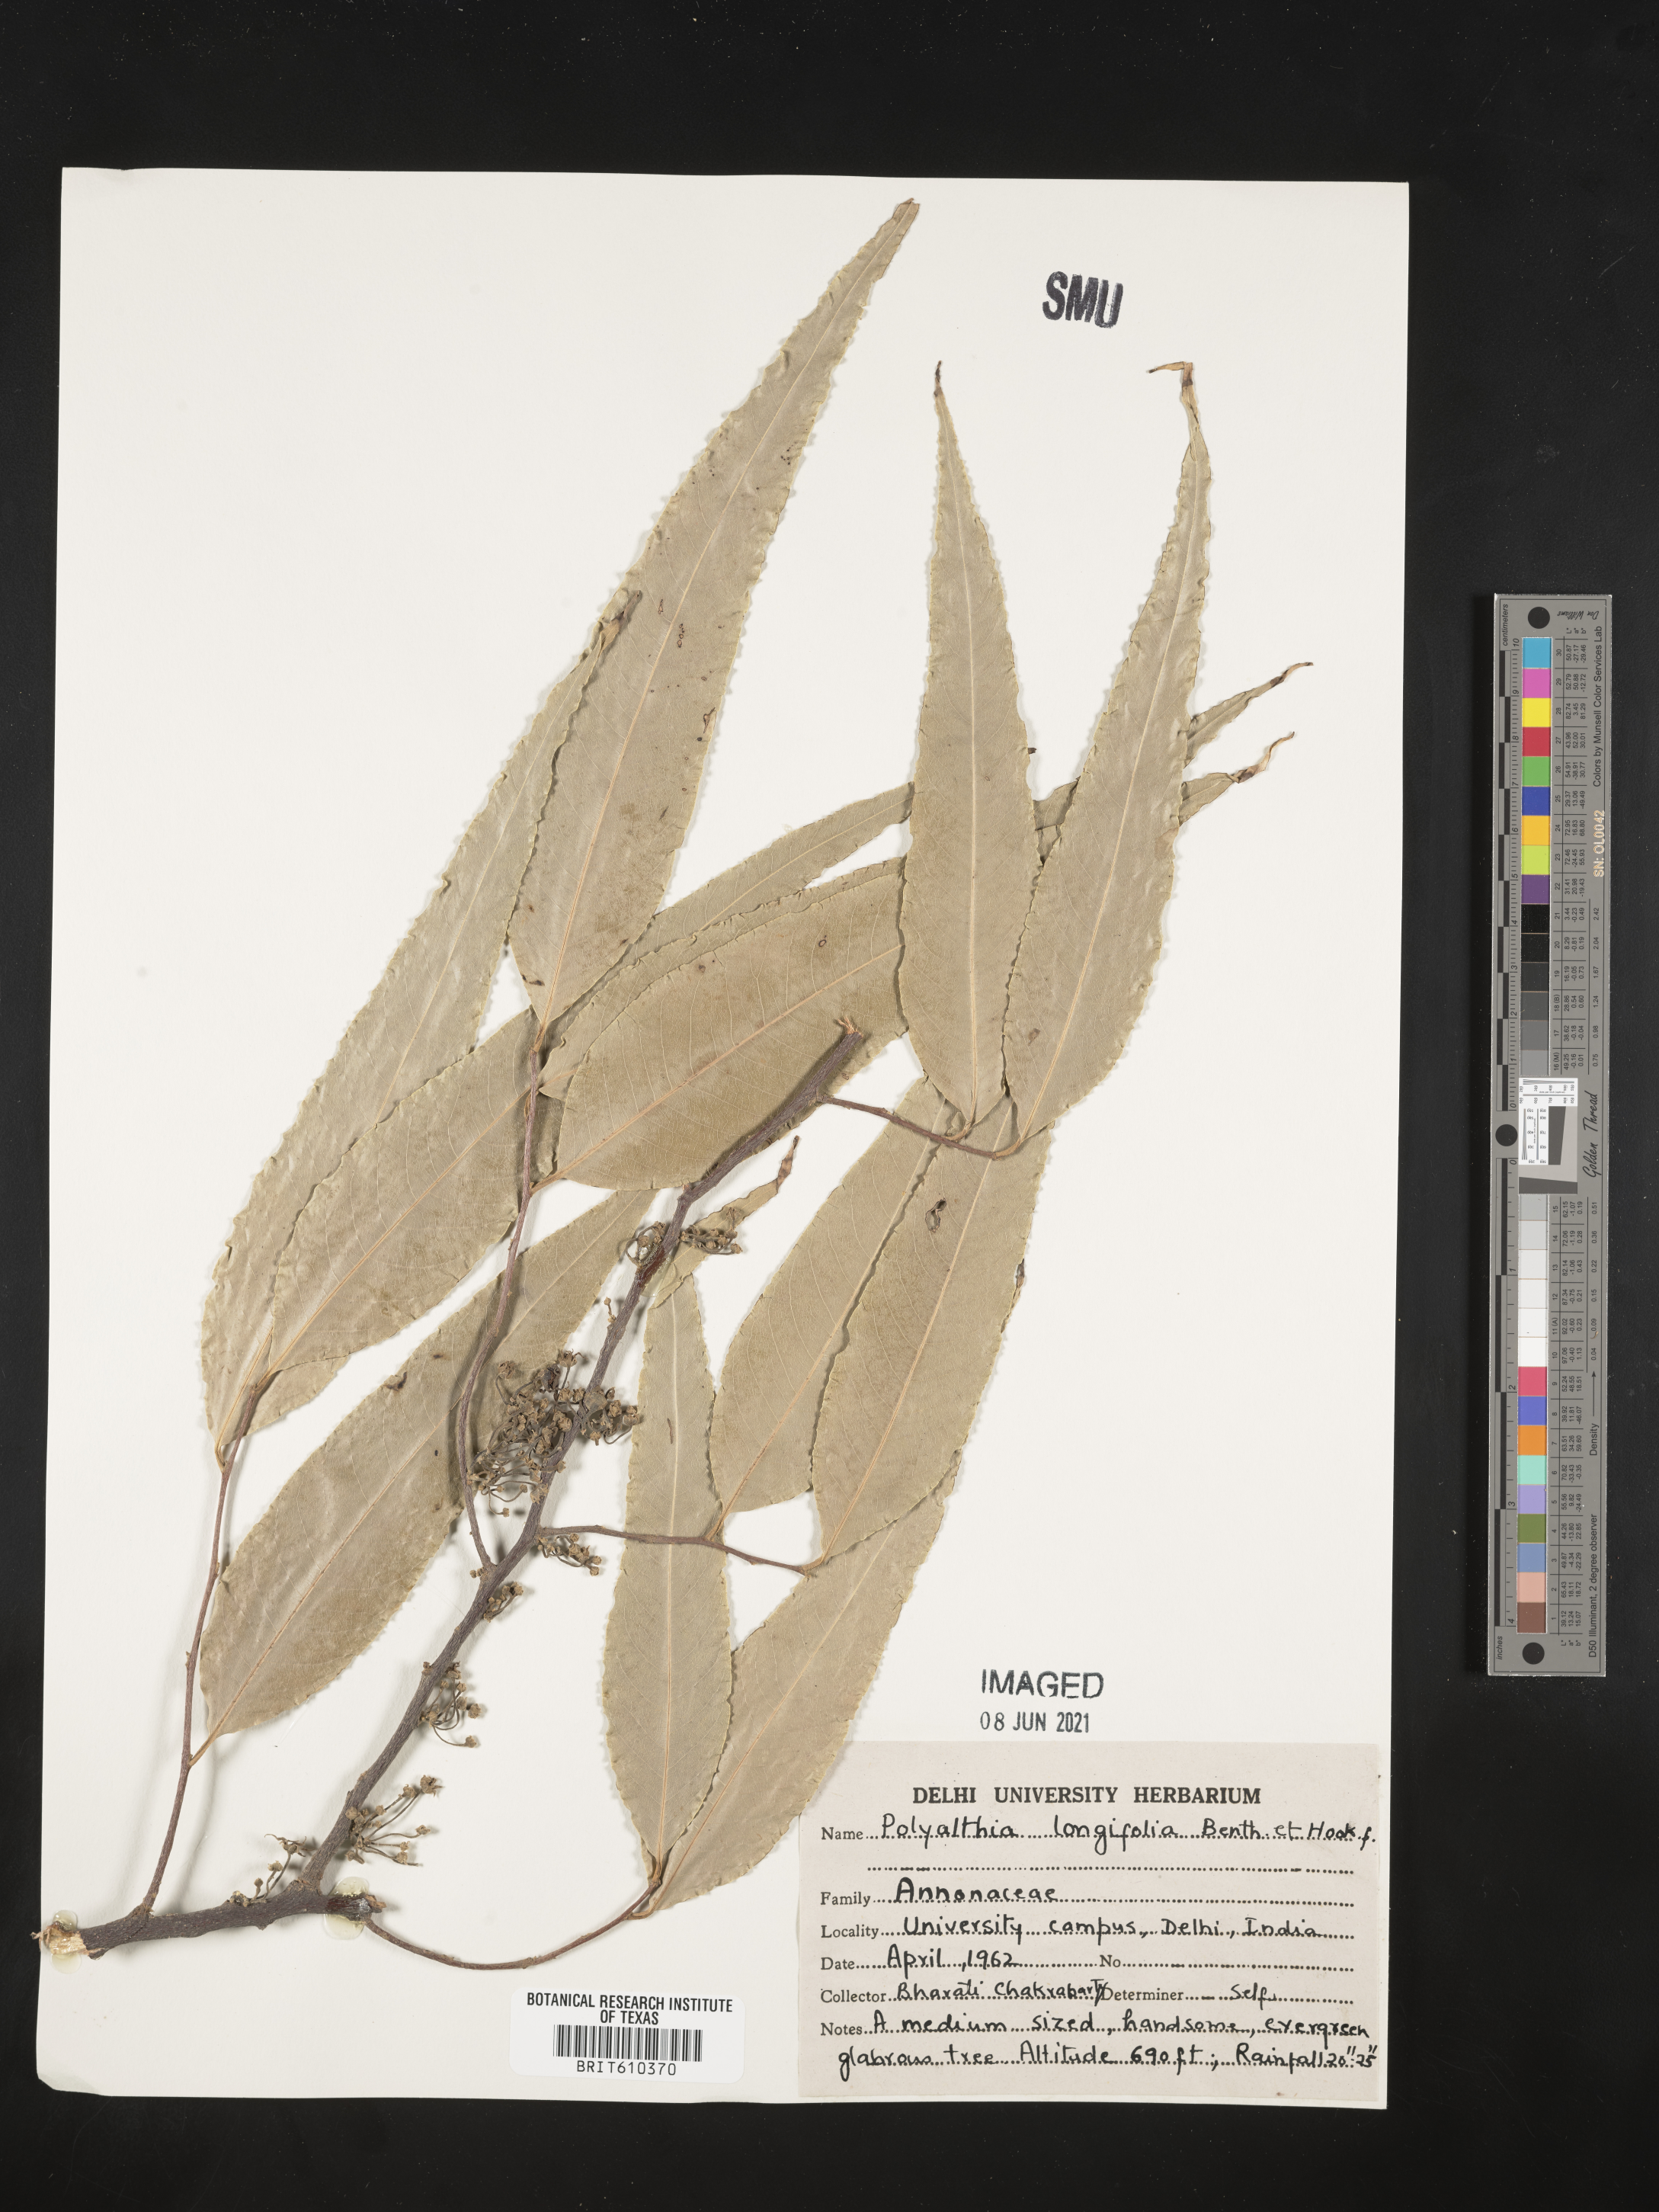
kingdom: Plantae
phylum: Tracheophyta
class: Magnoliopsida
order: Magnoliales
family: Annonaceae
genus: Polyalthia
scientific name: Polyalthia longifolia
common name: Cemetery-tree
